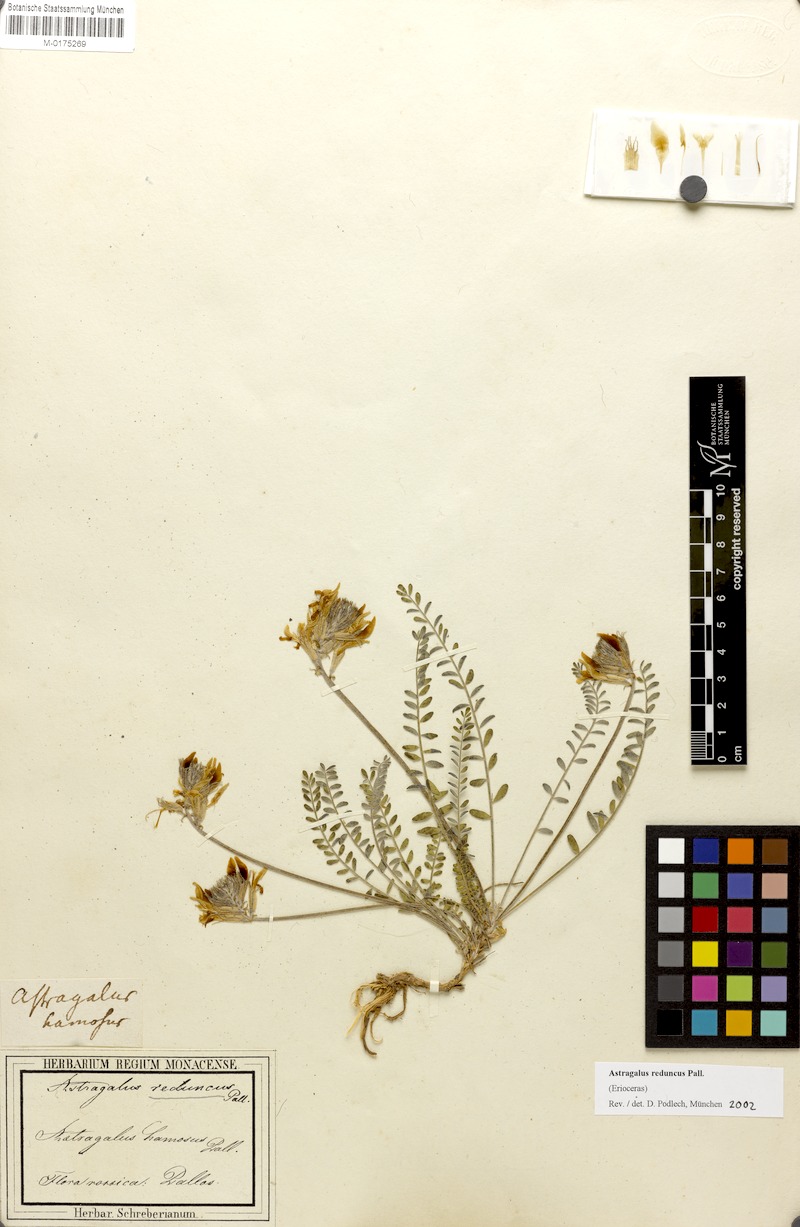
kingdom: Plantae
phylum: Tracheophyta
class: Magnoliopsida
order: Fabales
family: Fabaceae
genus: Astragalus
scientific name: Astragalus reduncus
